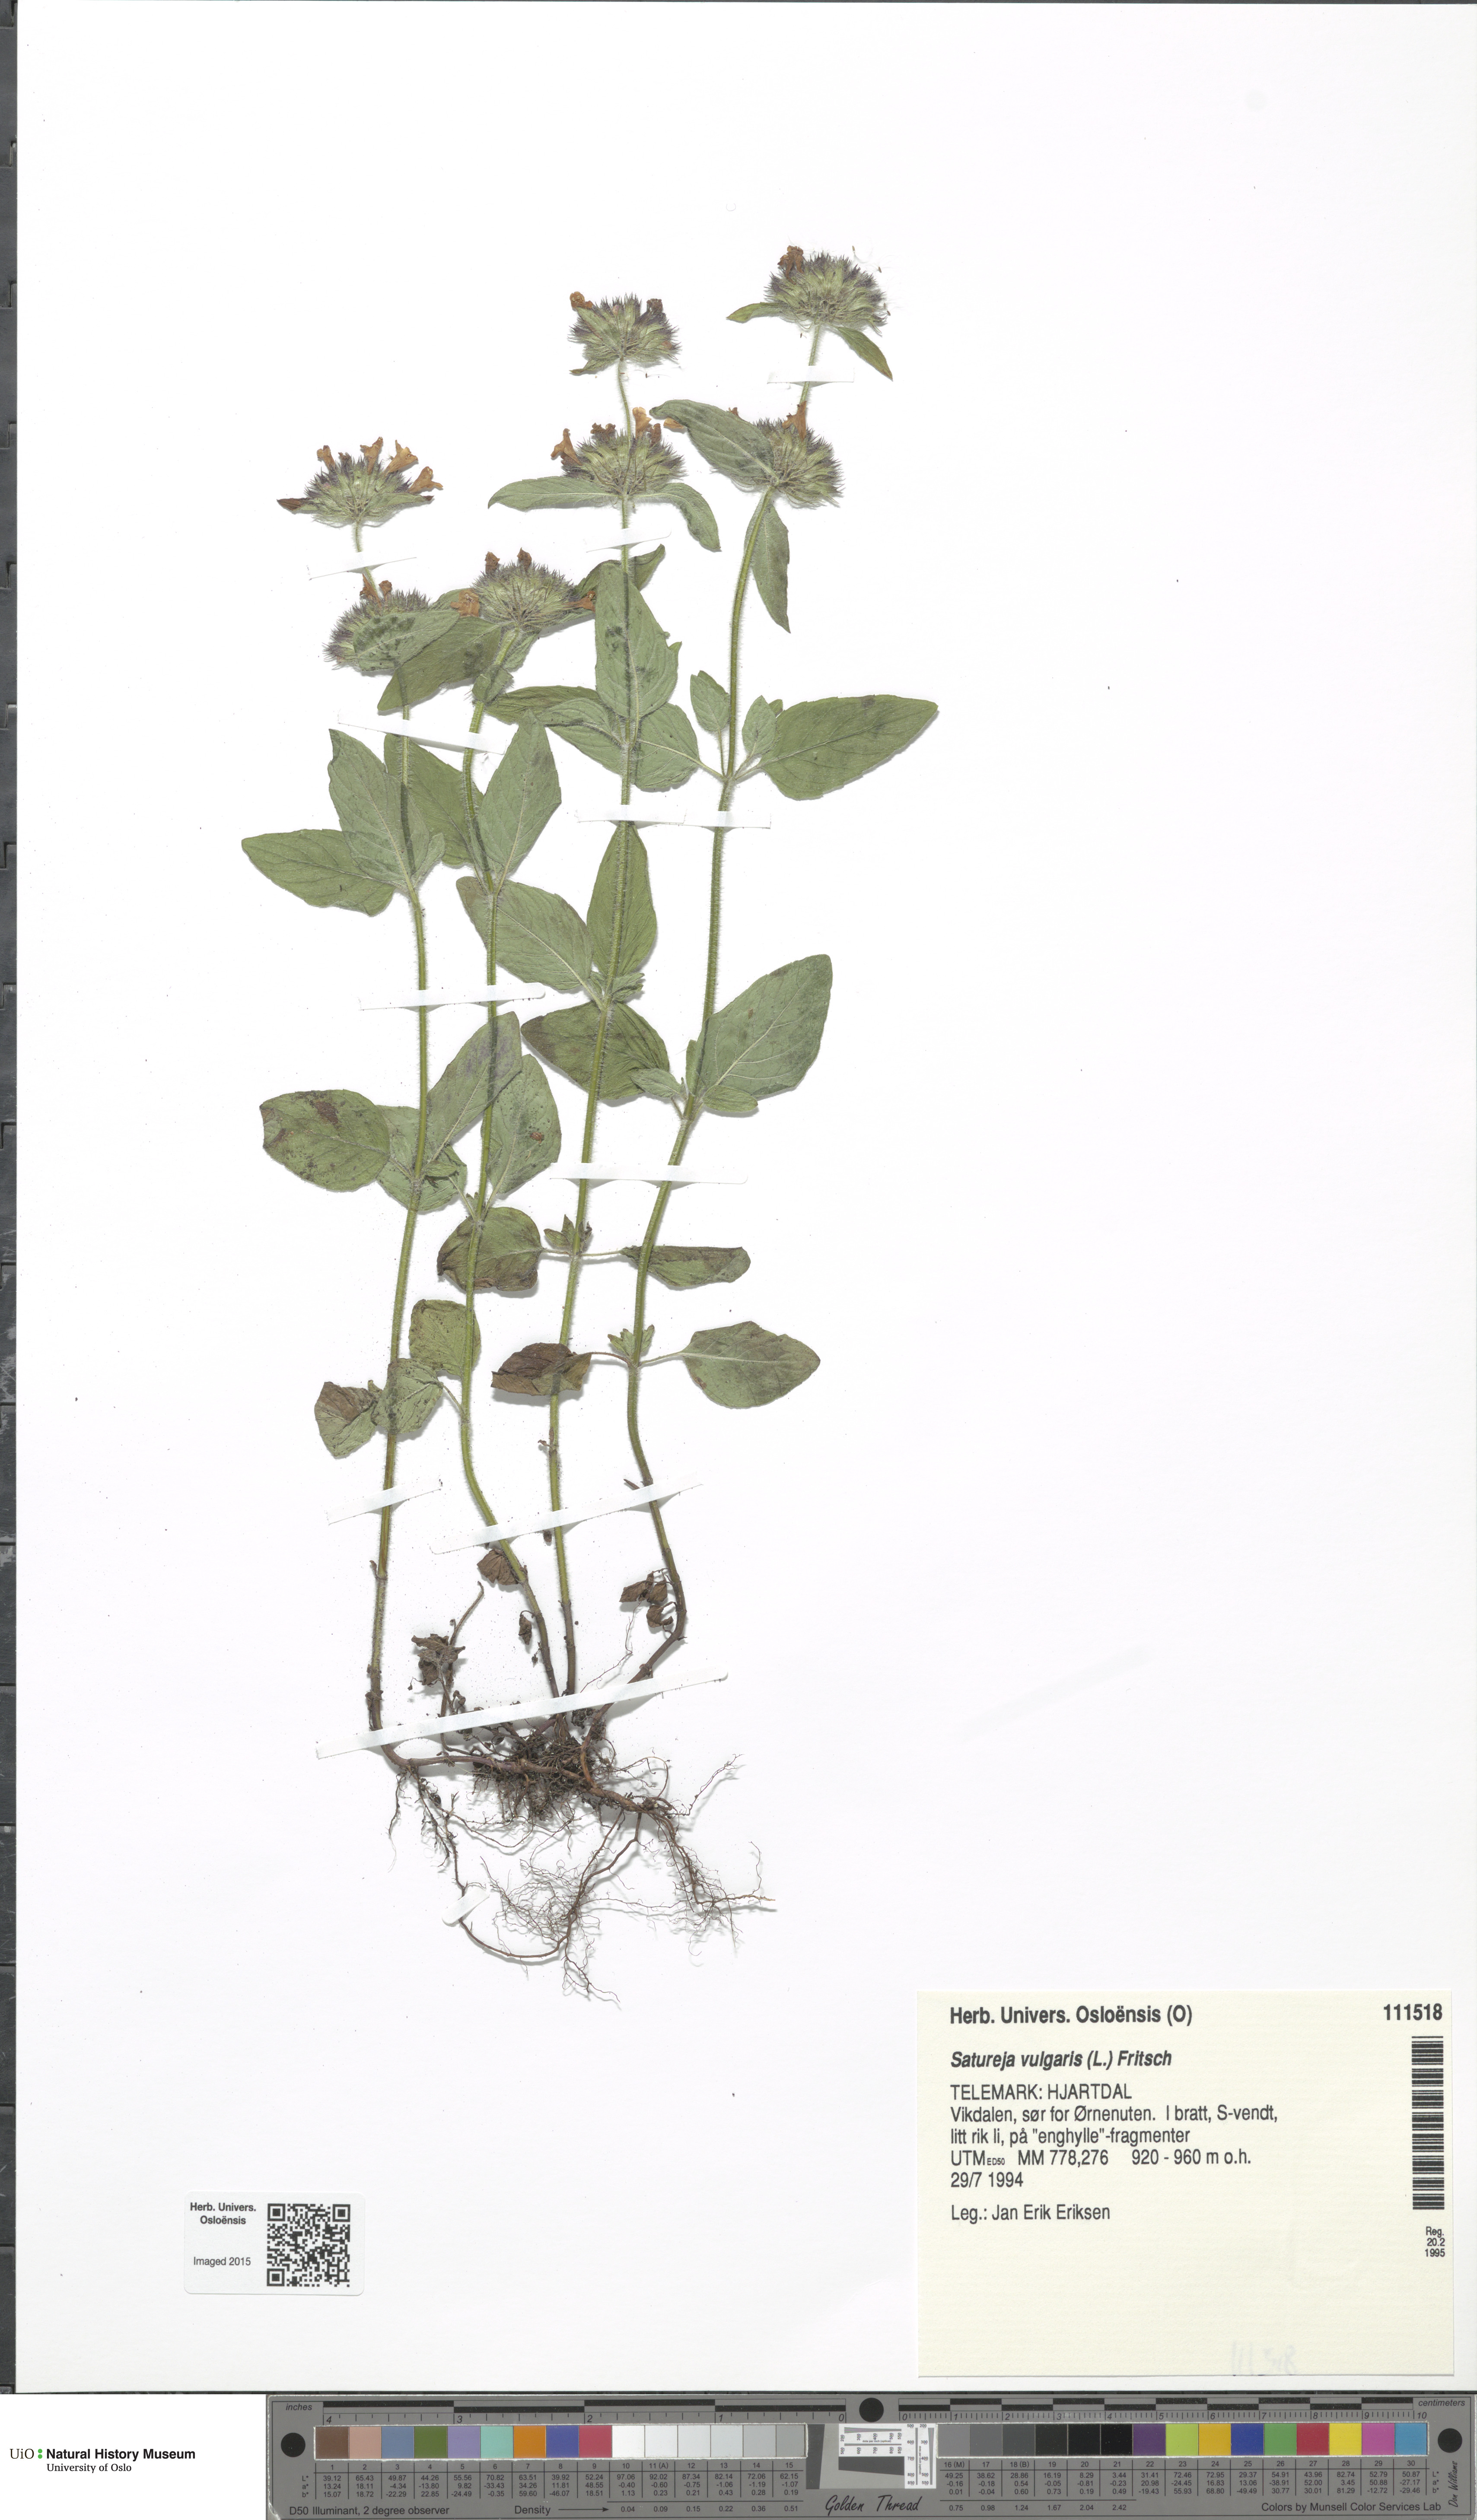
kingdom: Plantae
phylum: Tracheophyta
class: Magnoliopsida
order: Lamiales
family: Lamiaceae
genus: Clinopodium
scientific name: Clinopodium vulgare
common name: Wild basil
